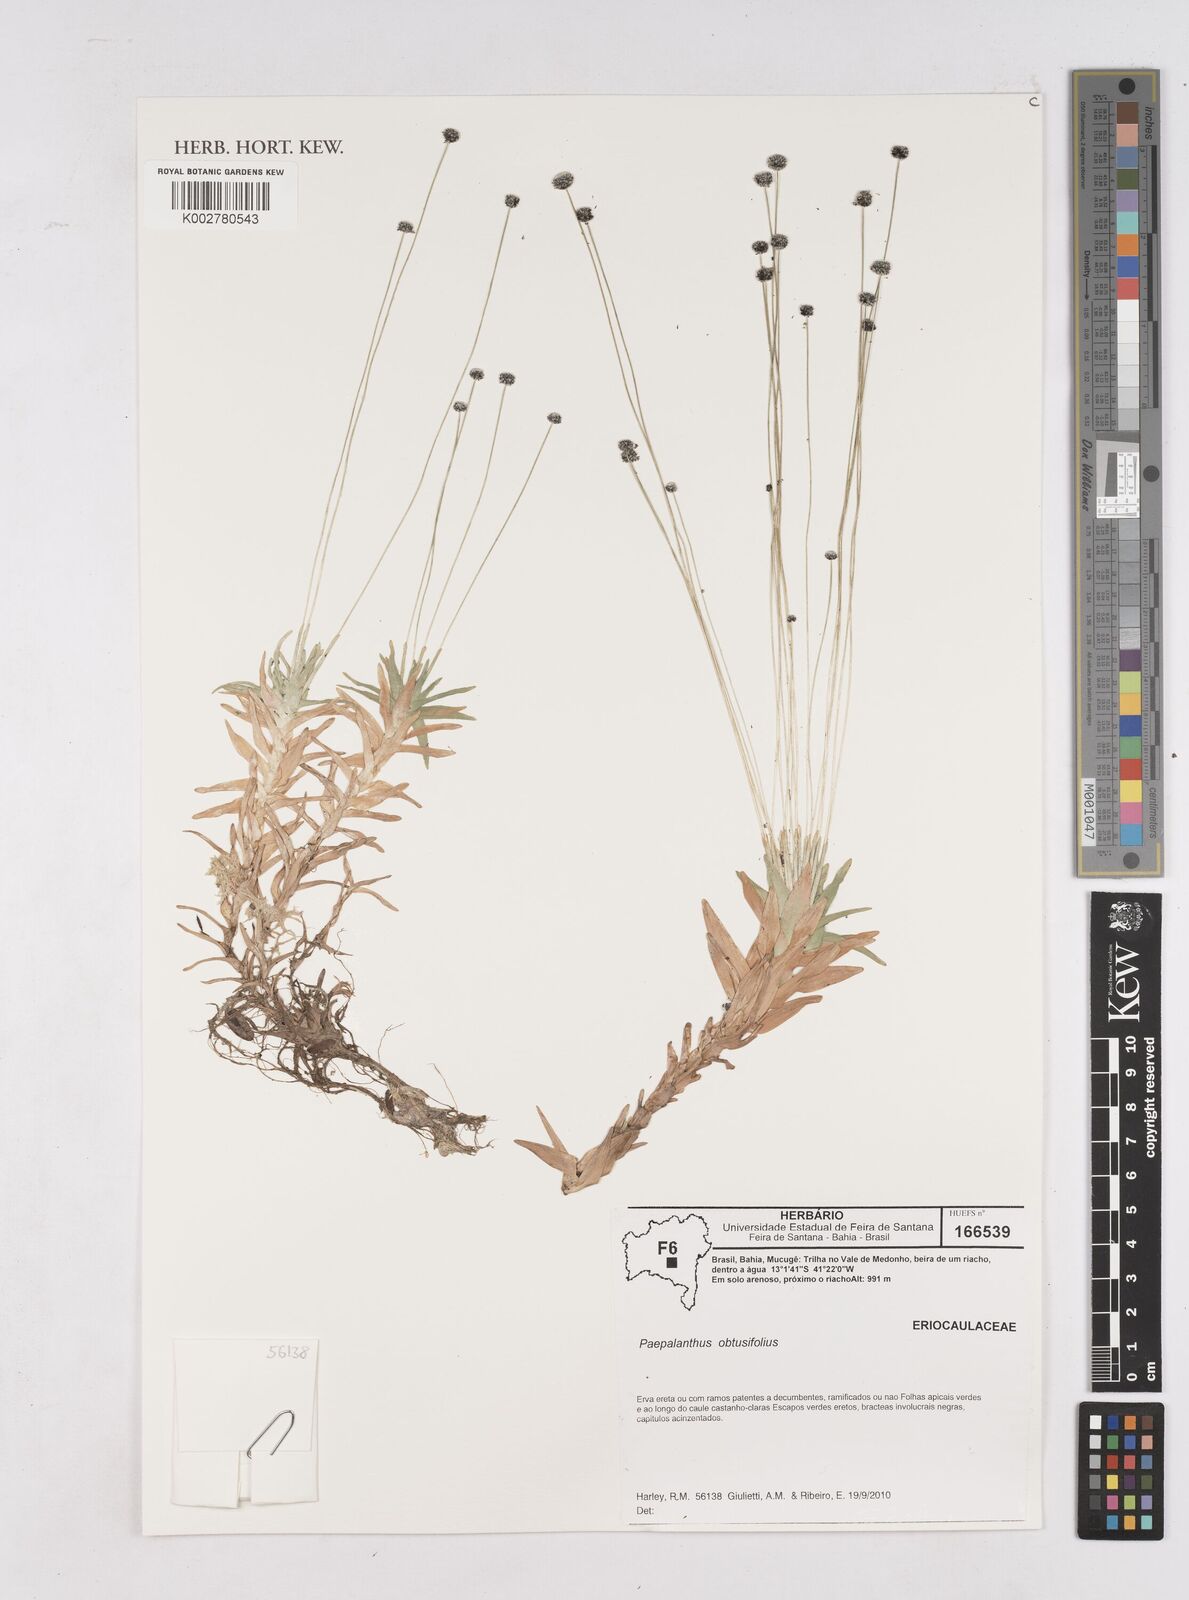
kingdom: Plantae
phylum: Tracheophyta
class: Liliopsida
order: Poales
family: Eriocaulaceae
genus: Paepalanthus
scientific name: Paepalanthus obtusifolius
